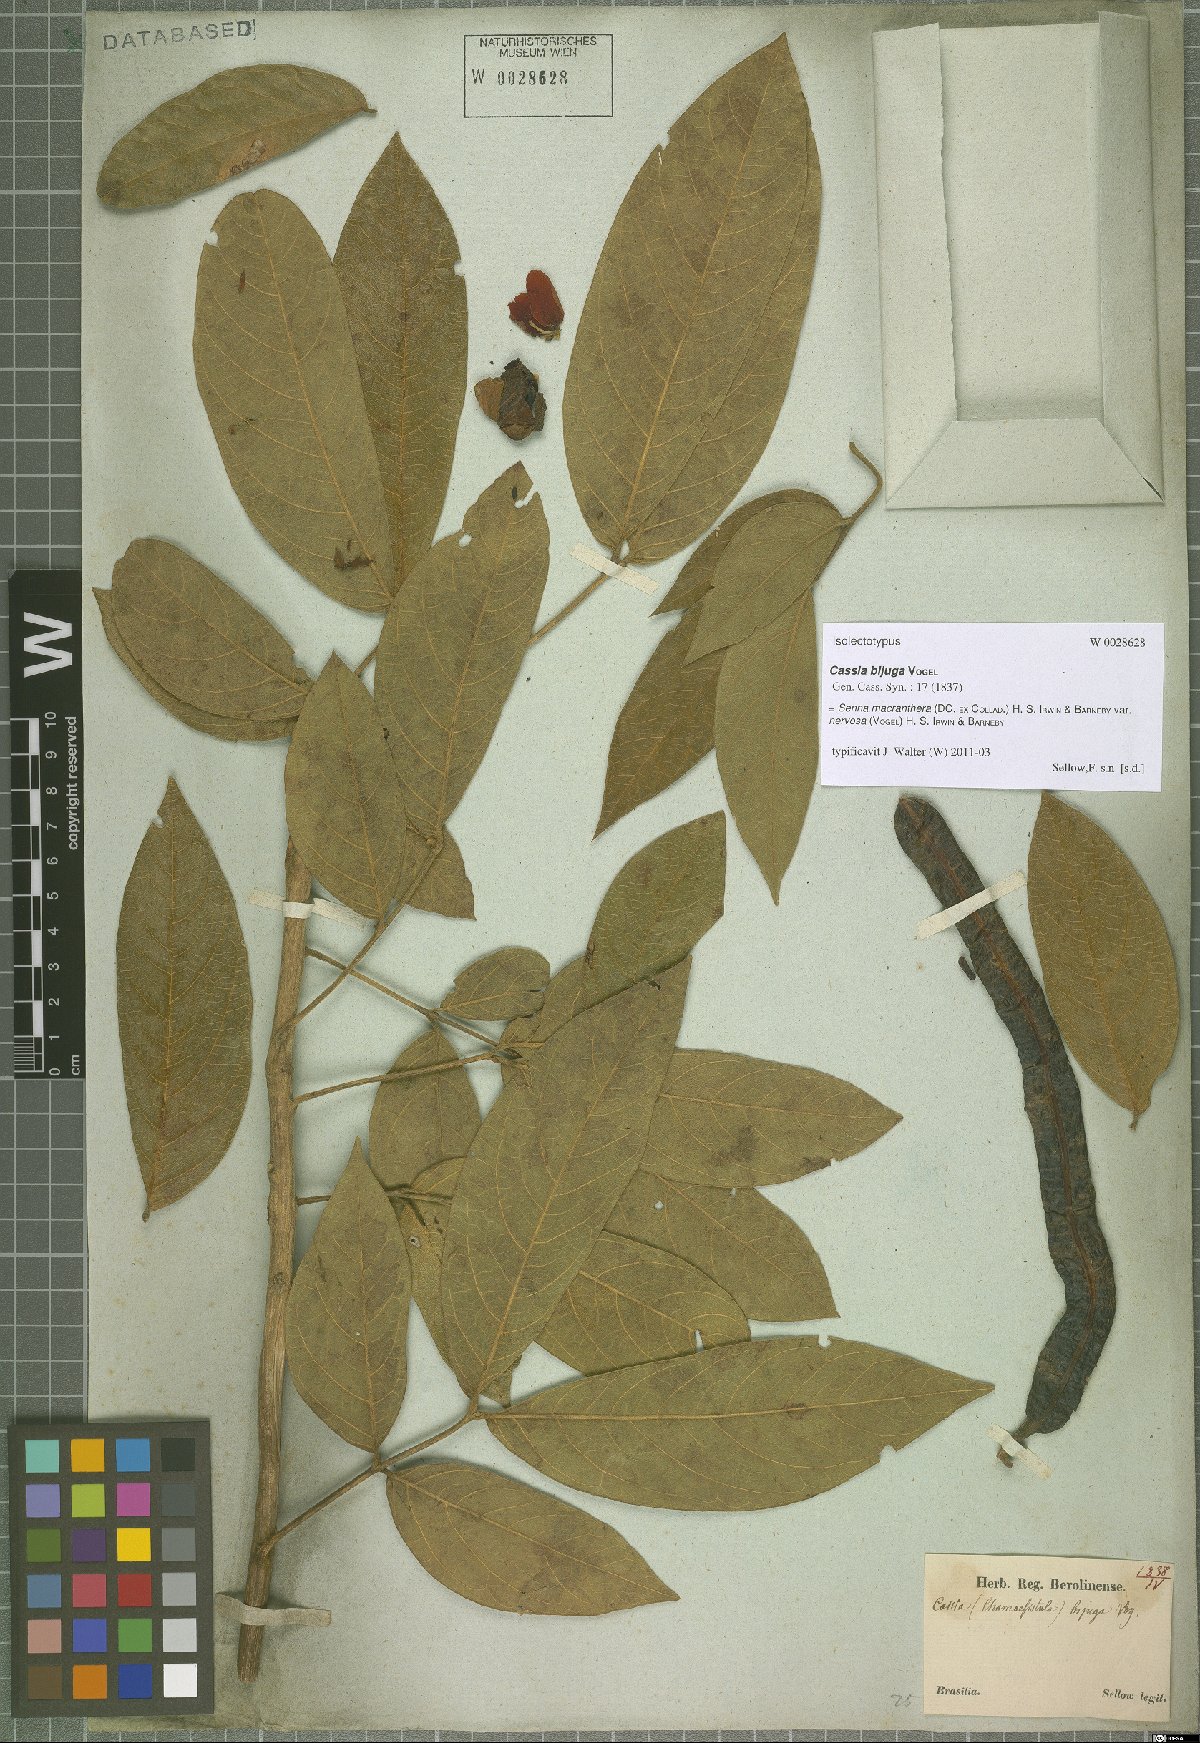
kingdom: Plantae
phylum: Tracheophyta
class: Magnoliopsida
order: Fabales
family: Fabaceae
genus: Senna
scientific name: Senna macranthera
